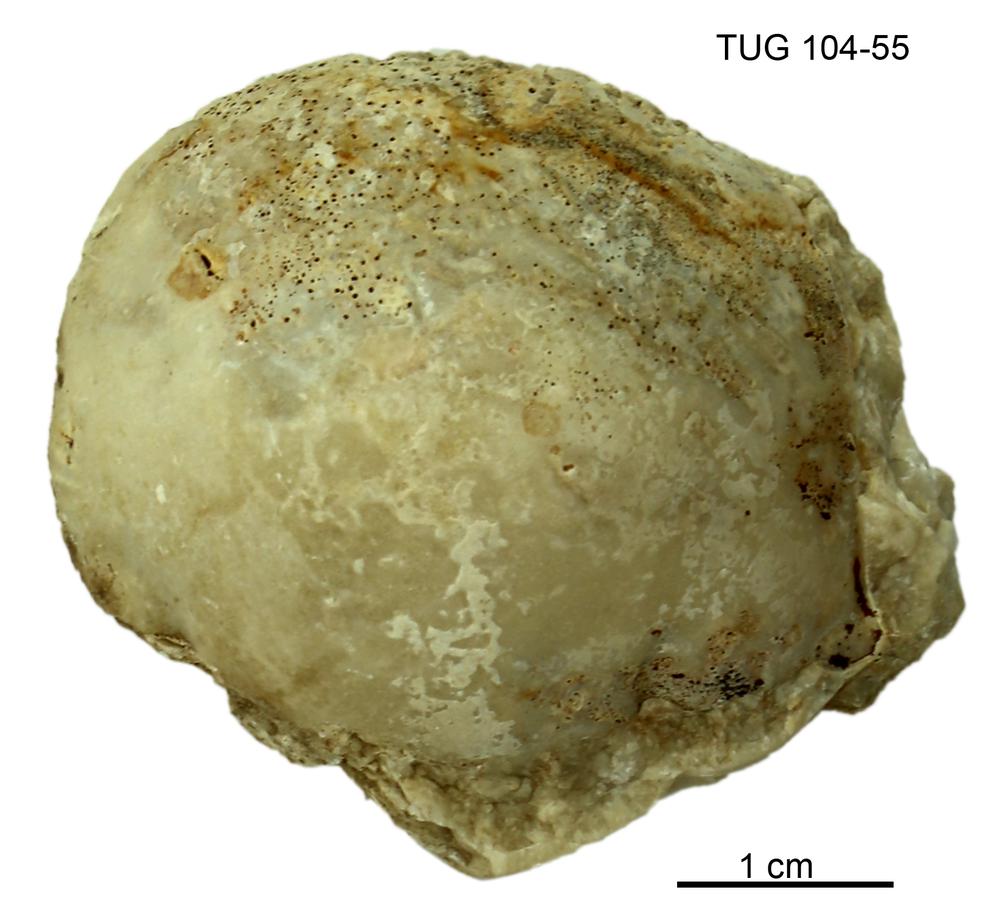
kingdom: Animalia
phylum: Arthropoda
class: Trilobita
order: Corynexochida
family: Illaenidae
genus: Stenopareia
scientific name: Stenopareia linnarssoni
